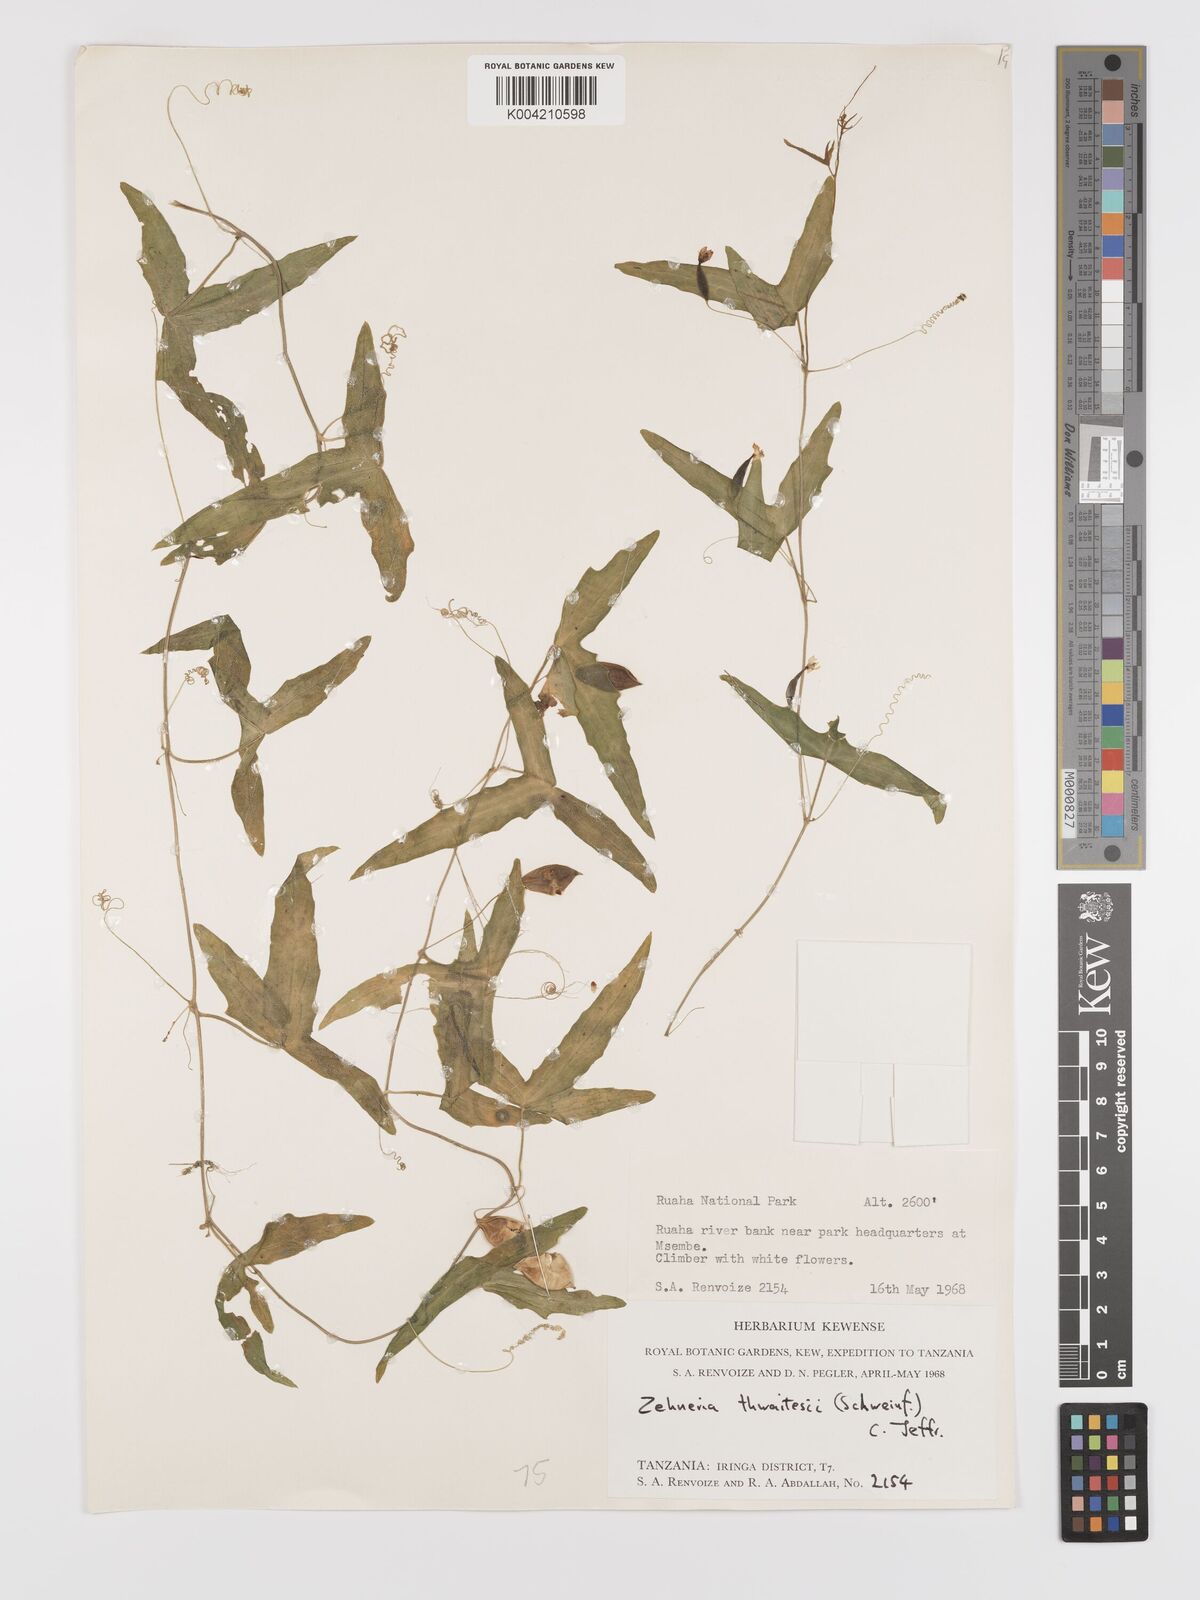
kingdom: Plantae
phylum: Tracheophyta
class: Magnoliopsida
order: Cucurbitales
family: Cucurbitaceae
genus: Zehneria
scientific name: Zehneria thwaitesii
